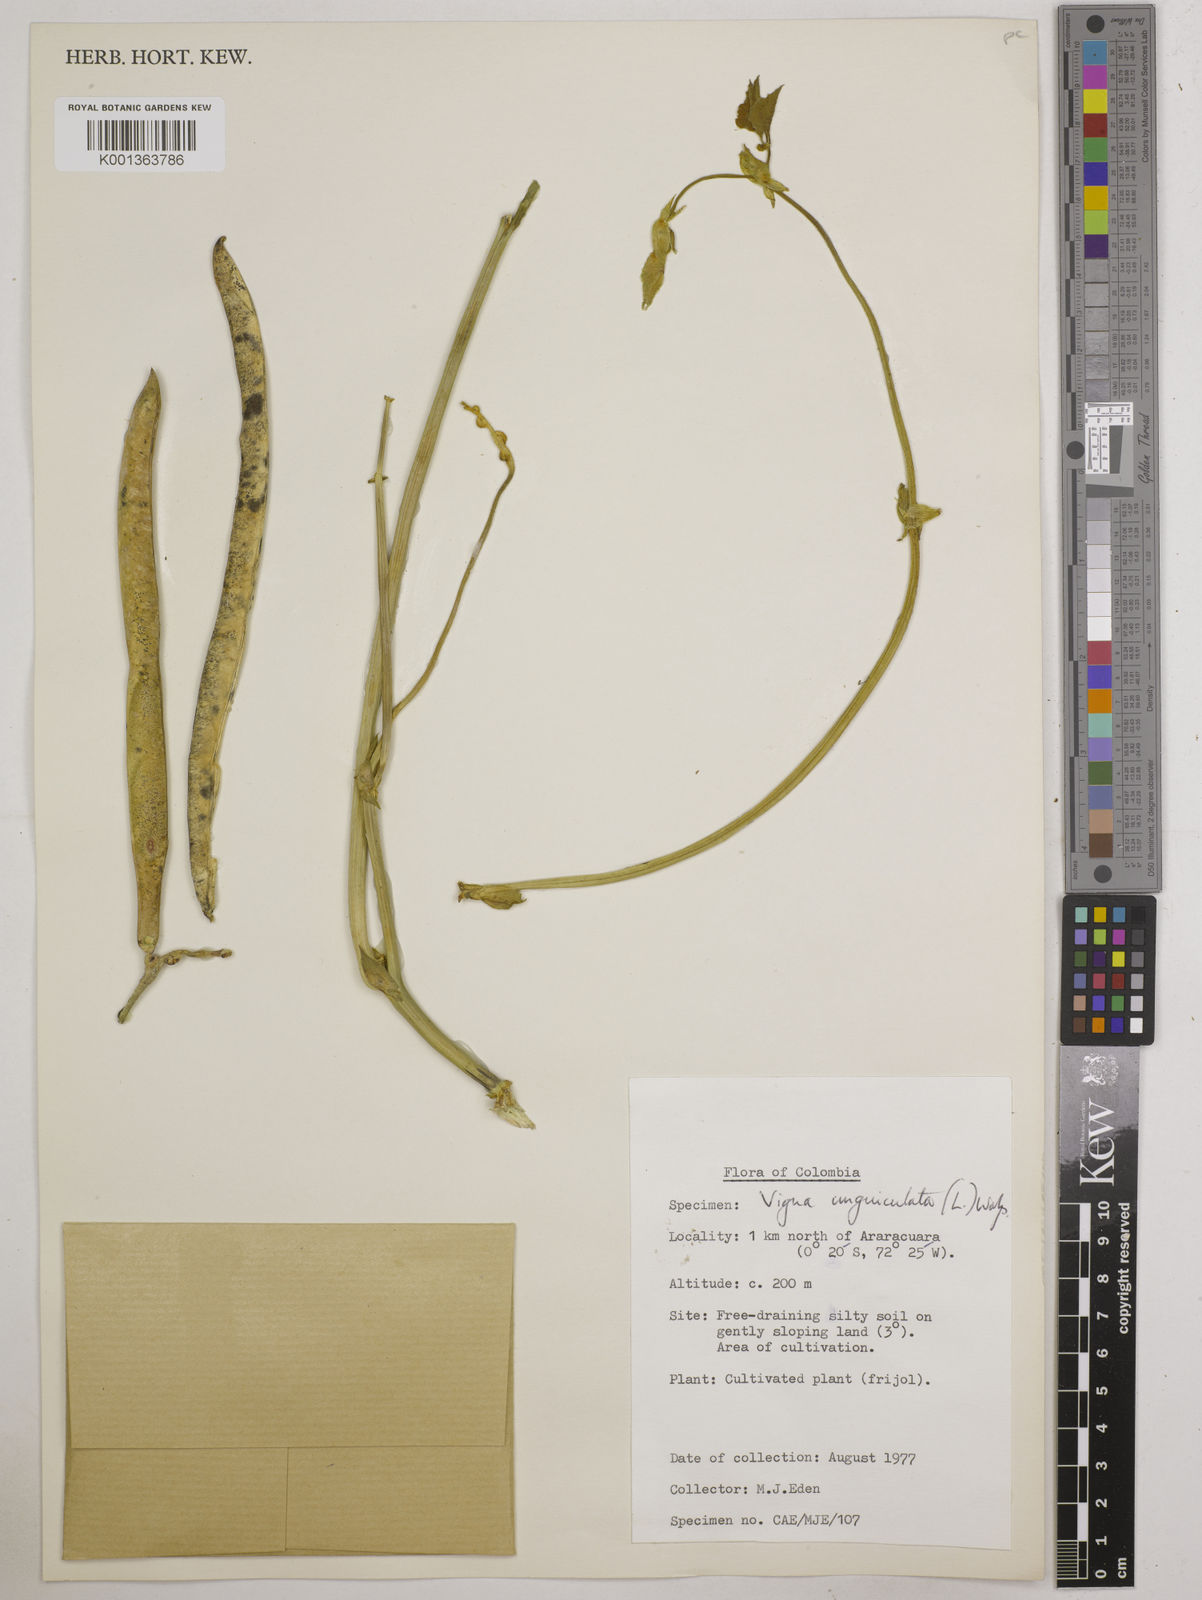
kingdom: Plantae
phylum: Tracheophyta
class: Magnoliopsida
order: Fabales
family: Fabaceae
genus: Vigna
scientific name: Vigna unguiculata
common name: Cowpea
